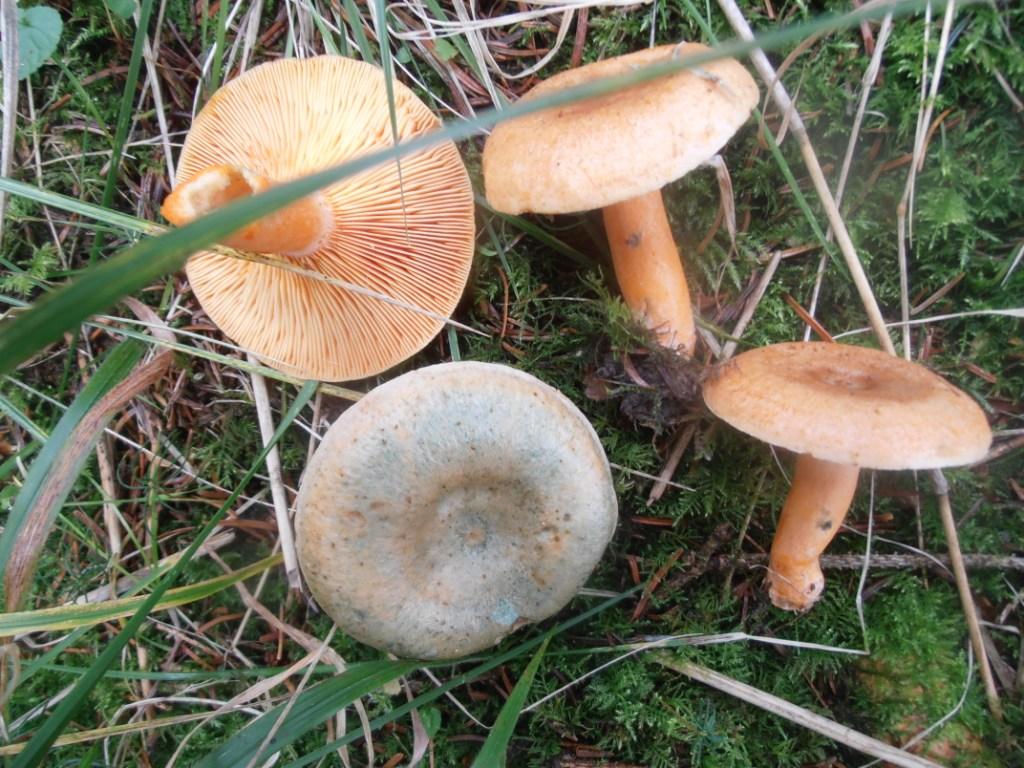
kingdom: Fungi
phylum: Basidiomycota
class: Agaricomycetes
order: Russulales
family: Russulaceae
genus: Lactarius
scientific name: Lactarius deterrimus
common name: gran-mælkehat
